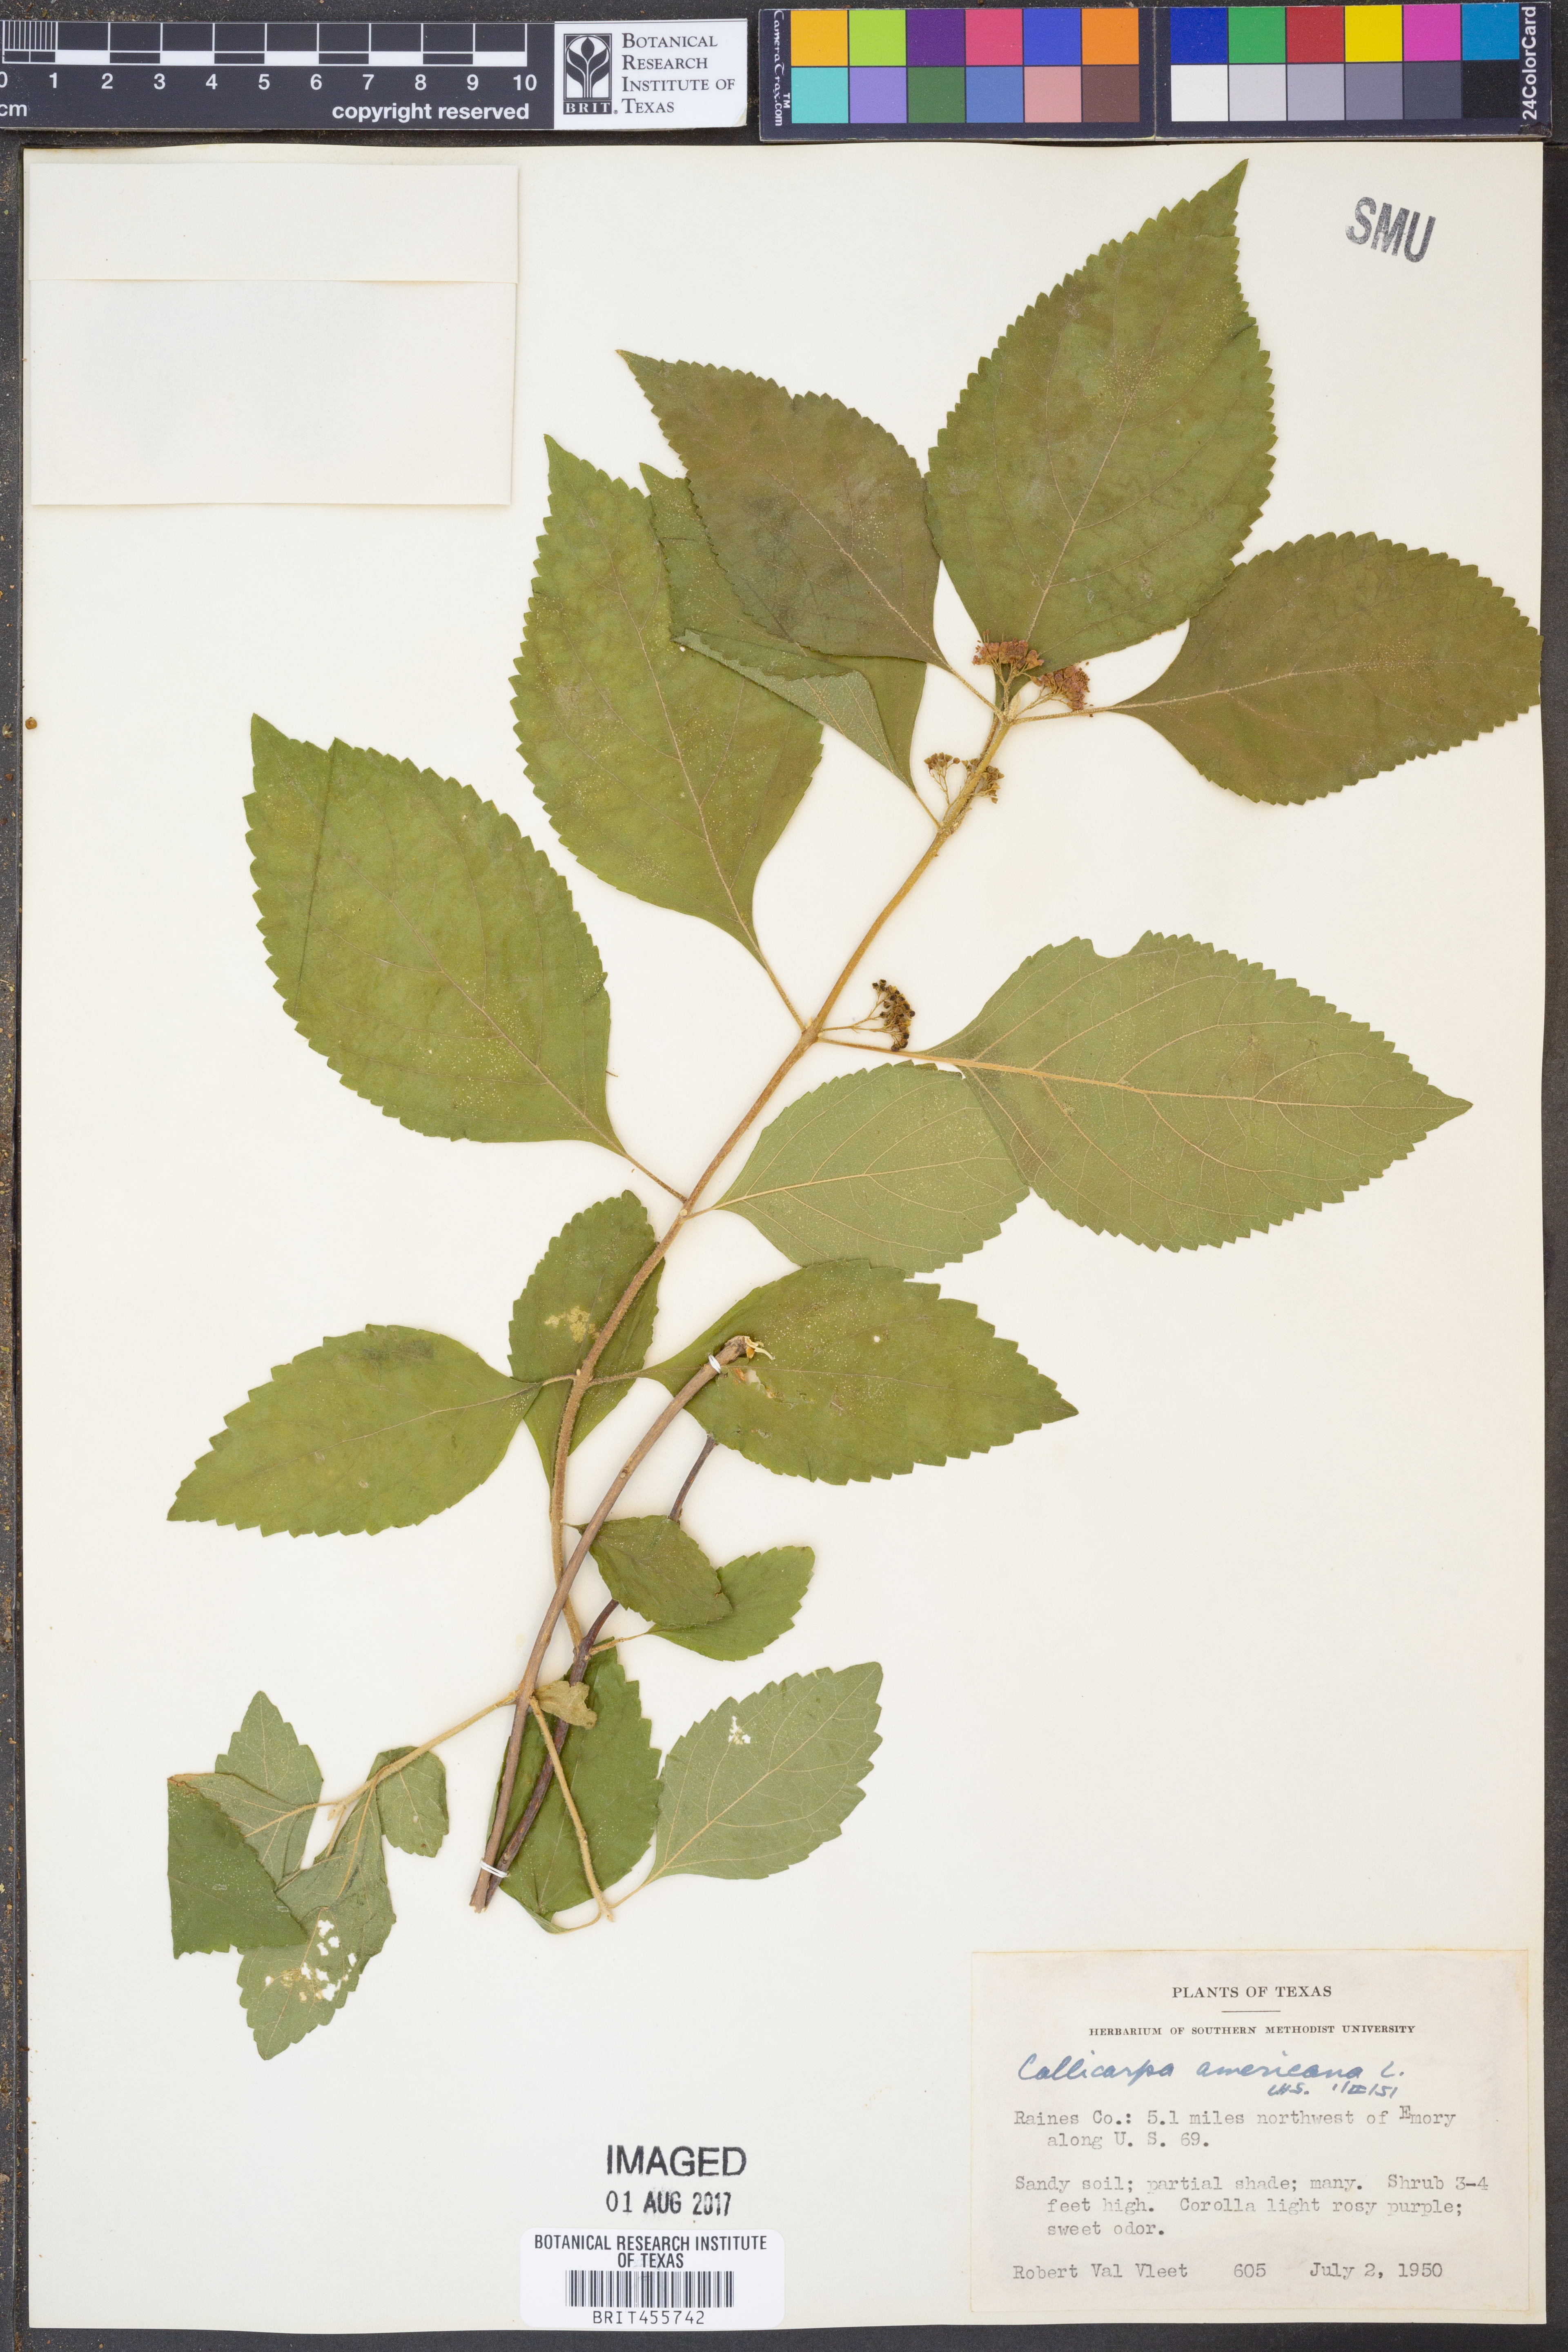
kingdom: Plantae
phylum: Tracheophyta
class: Magnoliopsida
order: Lamiales
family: Lamiaceae
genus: Callicarpa
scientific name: Callicarpa americana
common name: American beautyberry
